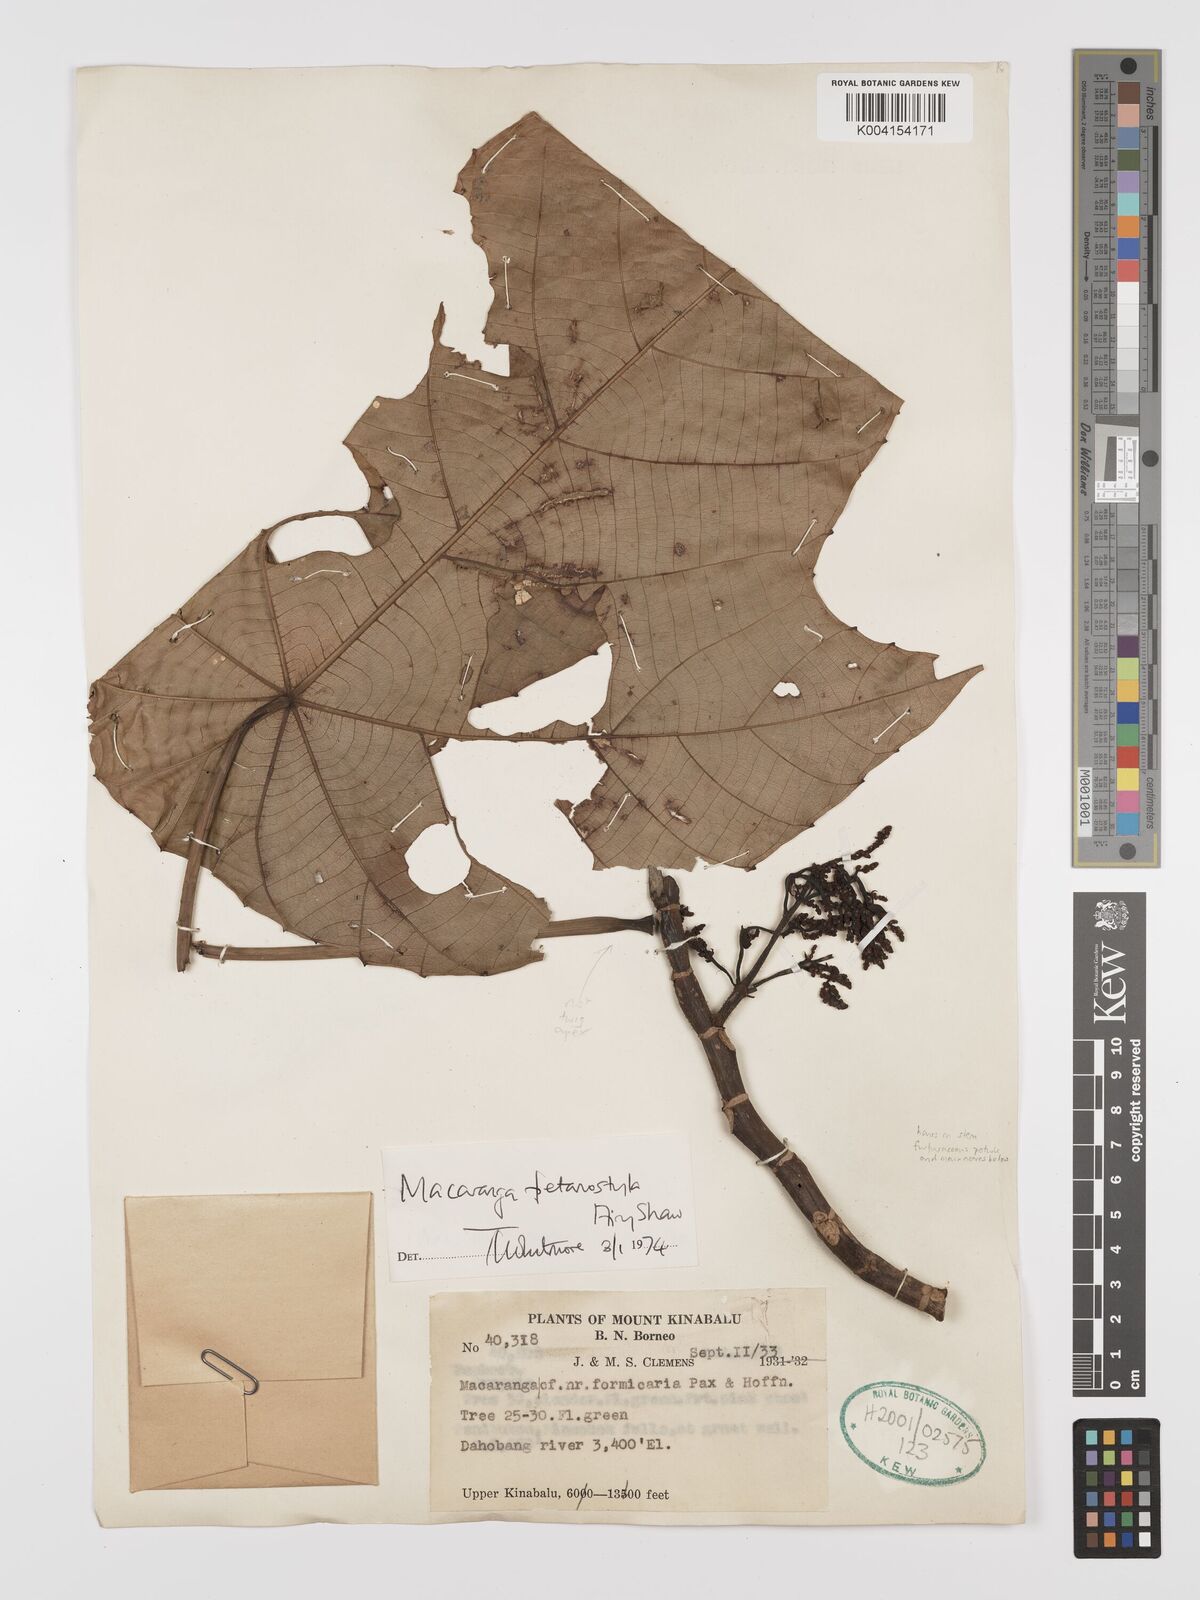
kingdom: Plantae
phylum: Tracheophyta
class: Magnoliopsida
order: Malpighiales
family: Euphorbiaceae
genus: Macaranga
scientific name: Macaranga petanostyla
